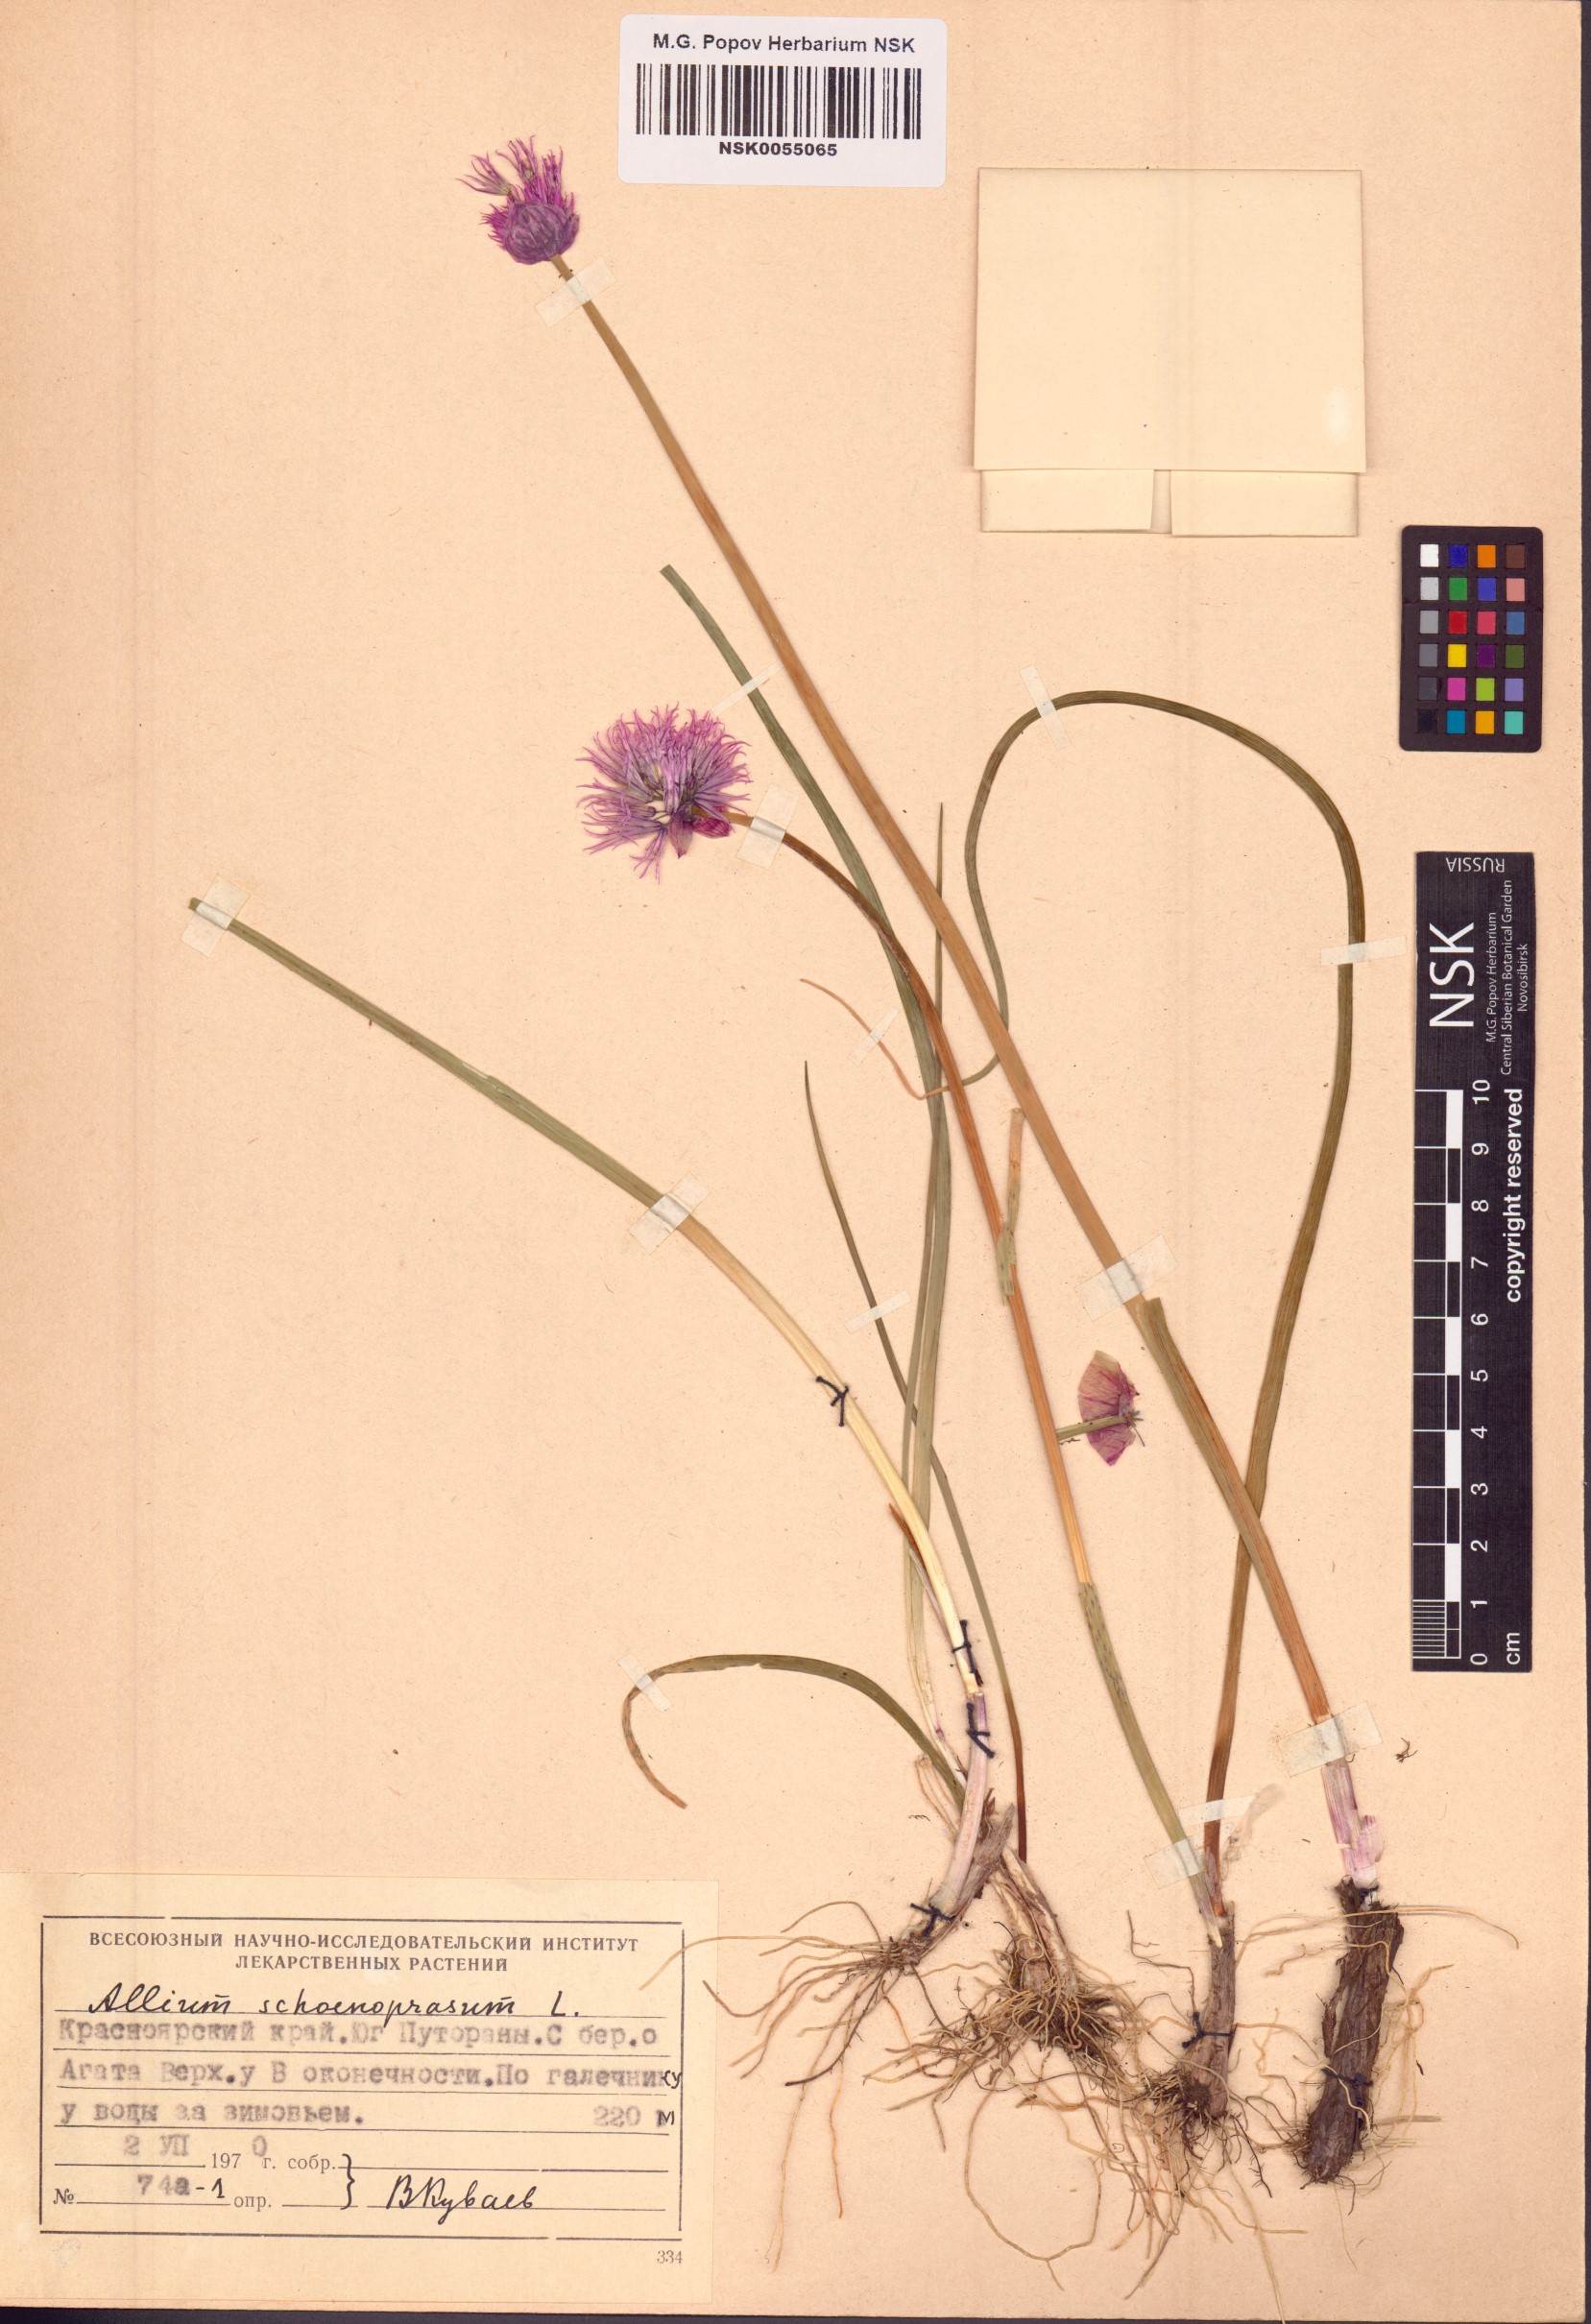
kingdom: Plantae
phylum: Tracheophyta
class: Liliopsida
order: Asparagales
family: Amaryllidaceae
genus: Allium
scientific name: Allium schoenoprasum
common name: Chives
